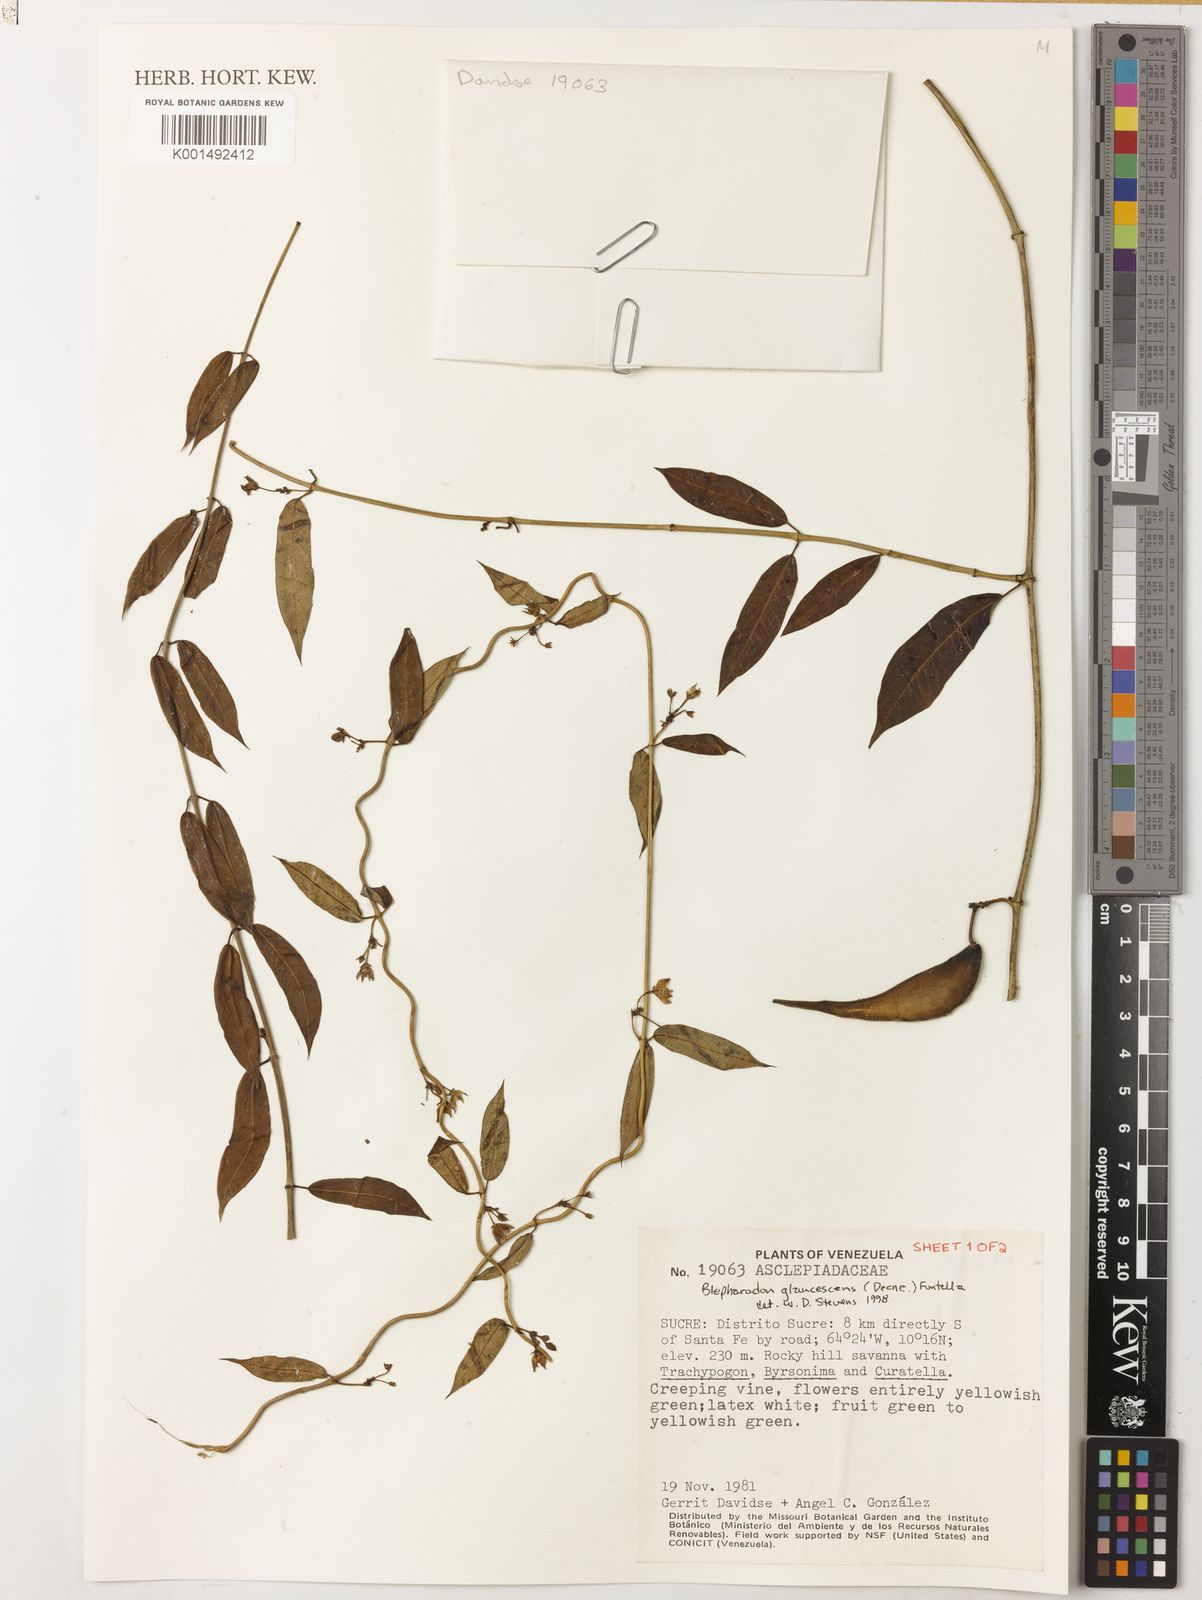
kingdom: Plantae
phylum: Tracheophyta
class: Magnoliopsida
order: Gentianales
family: Apocynaceae
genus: Blepharodon
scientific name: Blepharodon glaucescens
